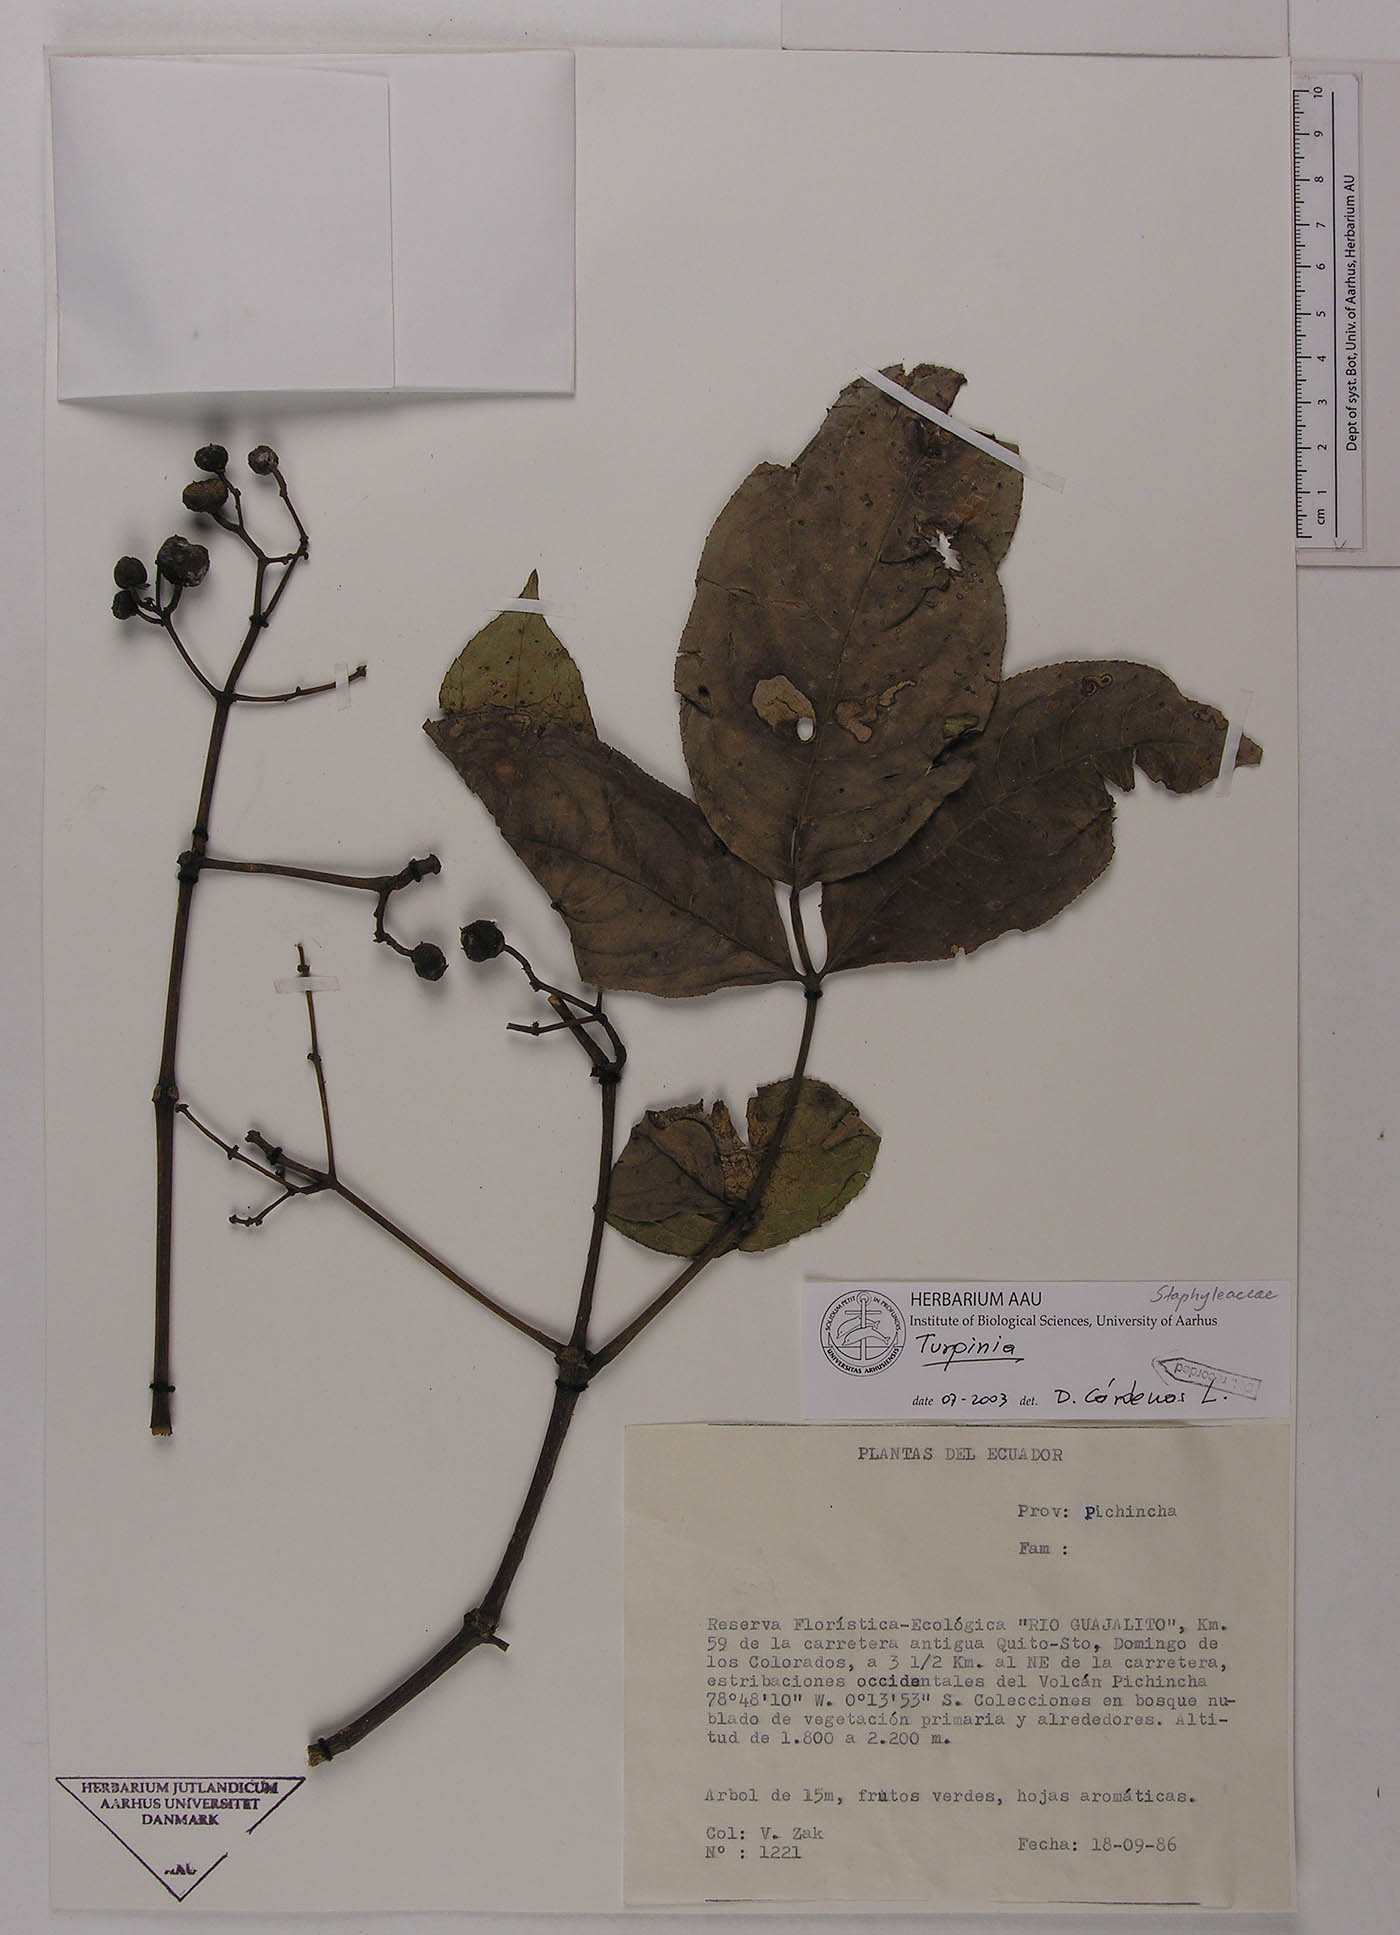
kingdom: Plantae
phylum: Tracheophyta
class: Magnoliopsida
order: Crossosomatales
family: Staphyleaceae
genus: Turpinia
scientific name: Turpinia megaphylla
